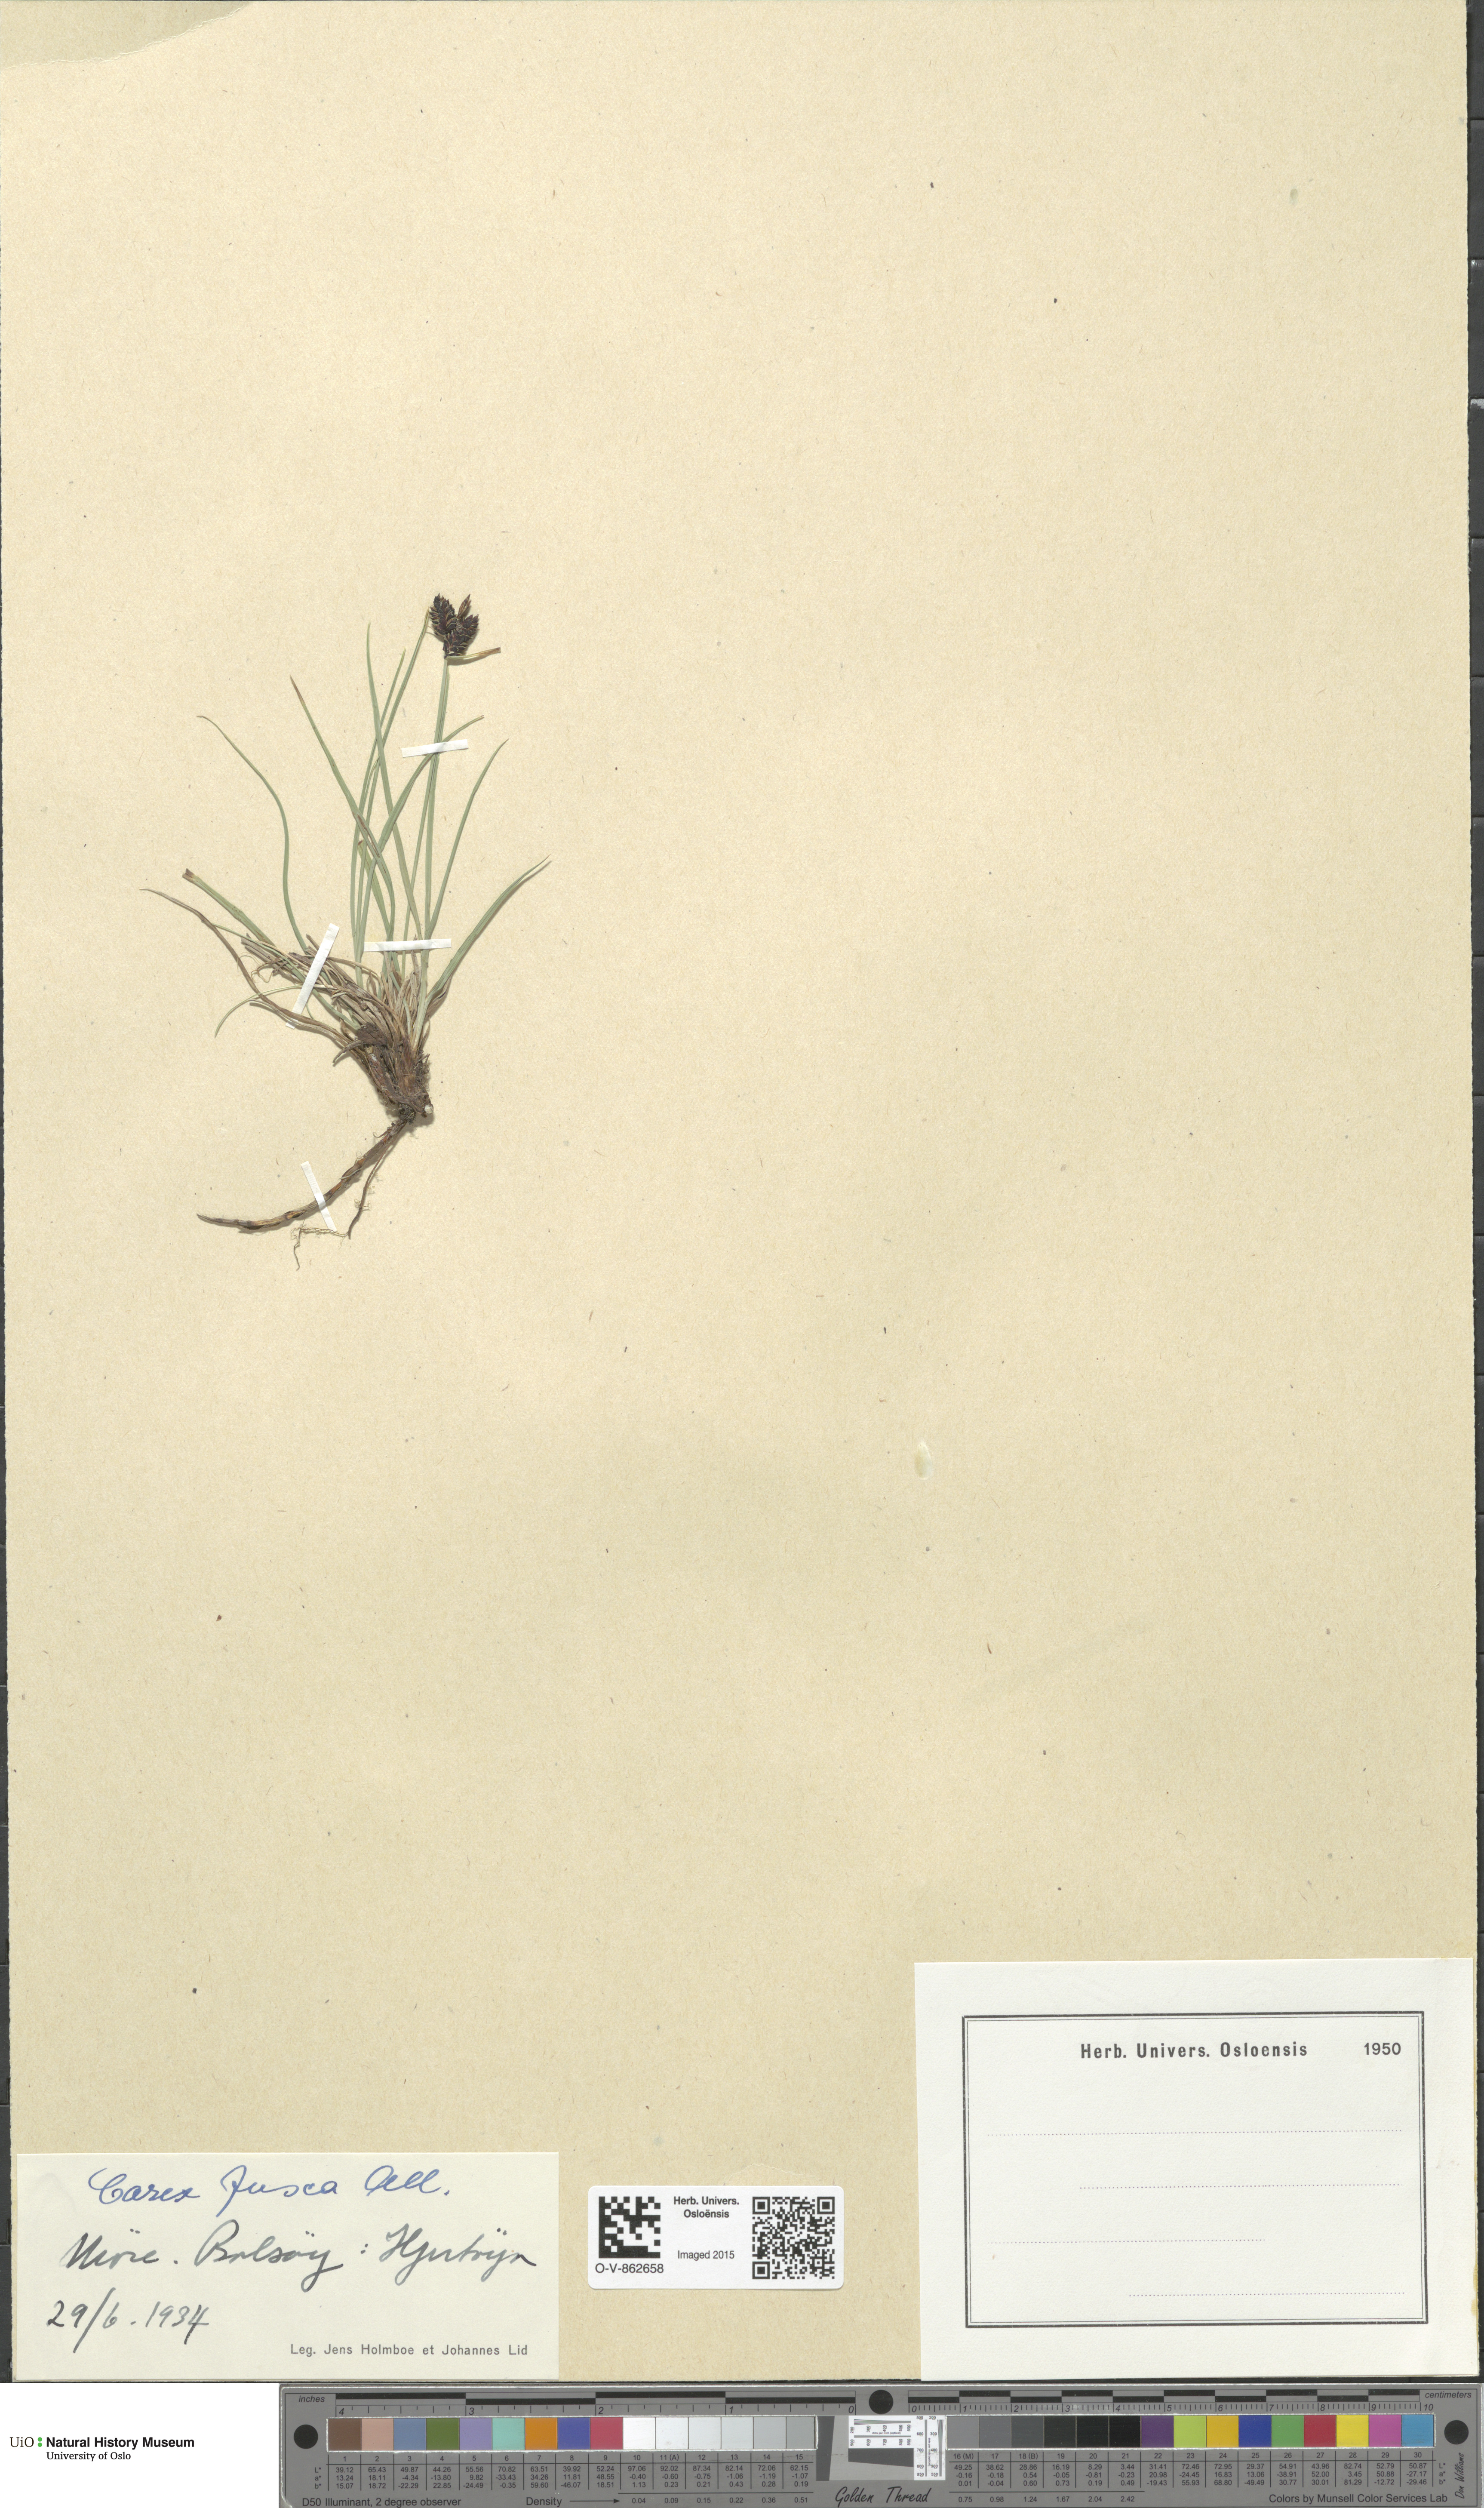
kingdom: Plantae
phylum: Tracheophyta
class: Liliopsida
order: Poales
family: Cyperaceae
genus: Carex
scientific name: Carex nigra
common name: Common sedge
